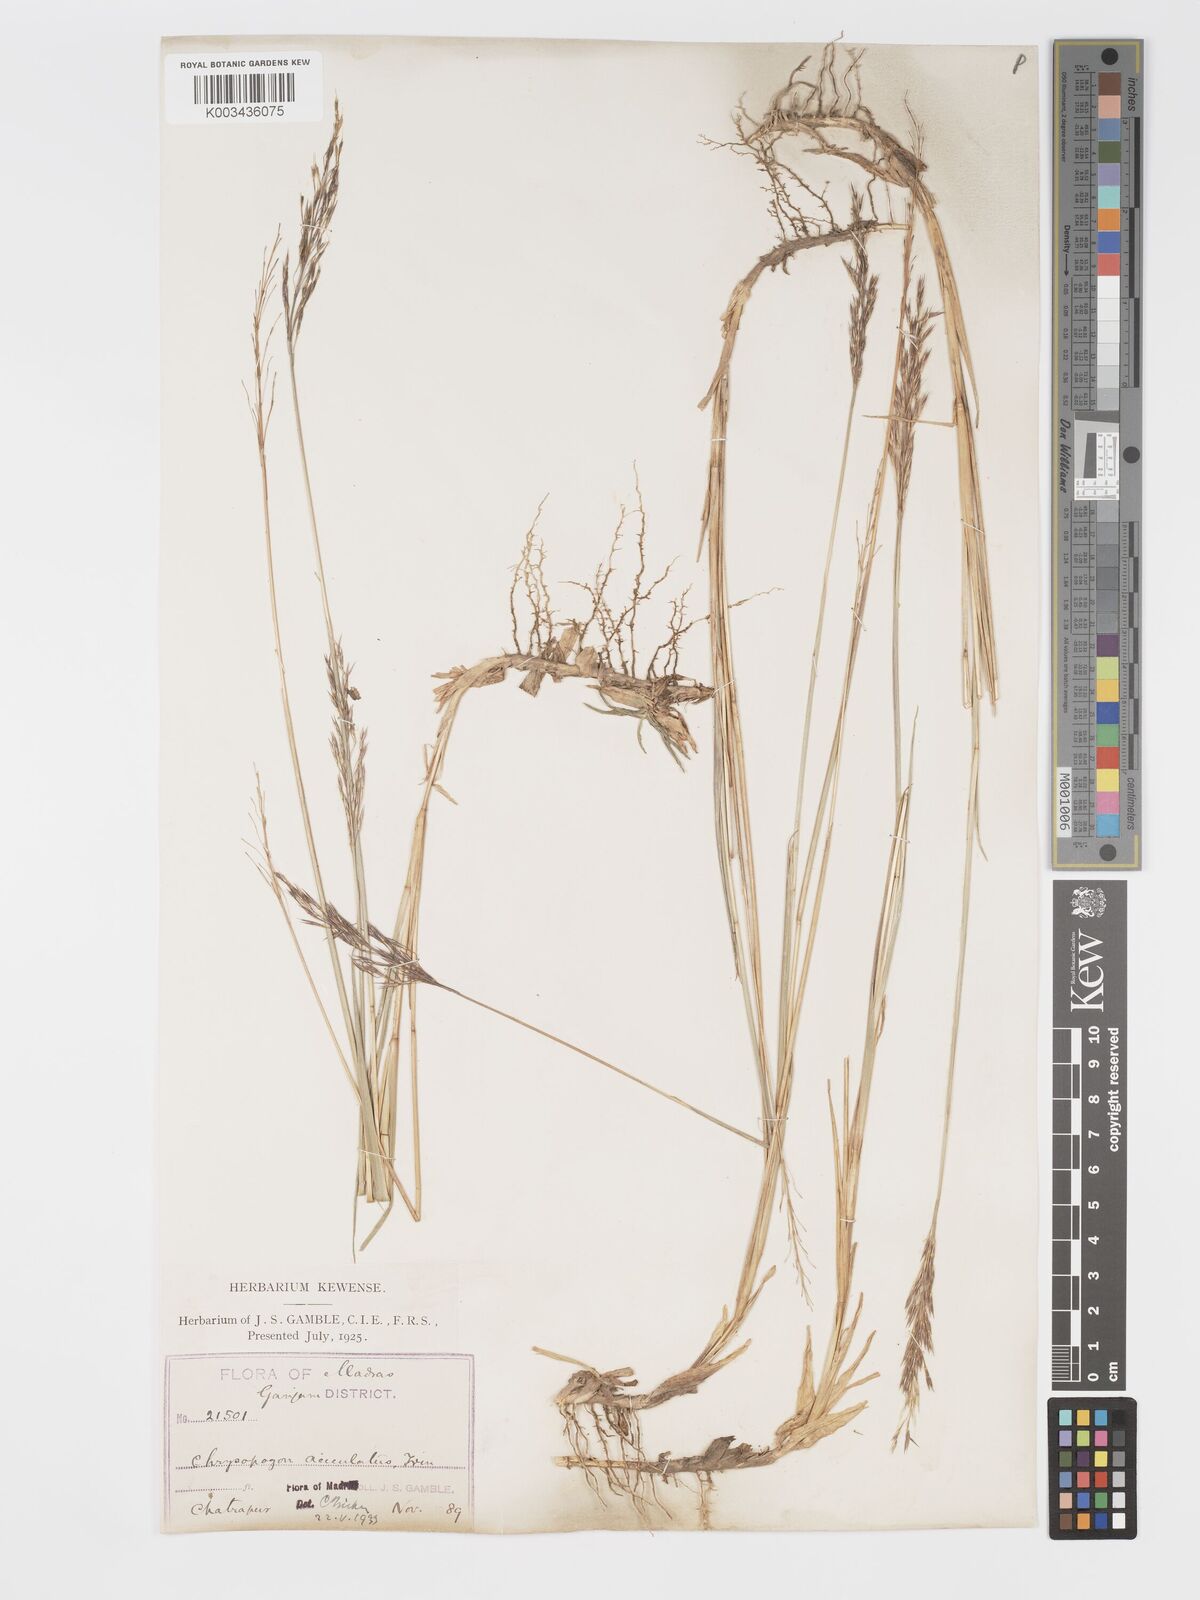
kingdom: Plantae
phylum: Tracheophyta
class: Liliopsida
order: Poales
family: Poaceae
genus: Chrysopogon
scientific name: Chrysopogon aciculatus
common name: Pilipiliula
